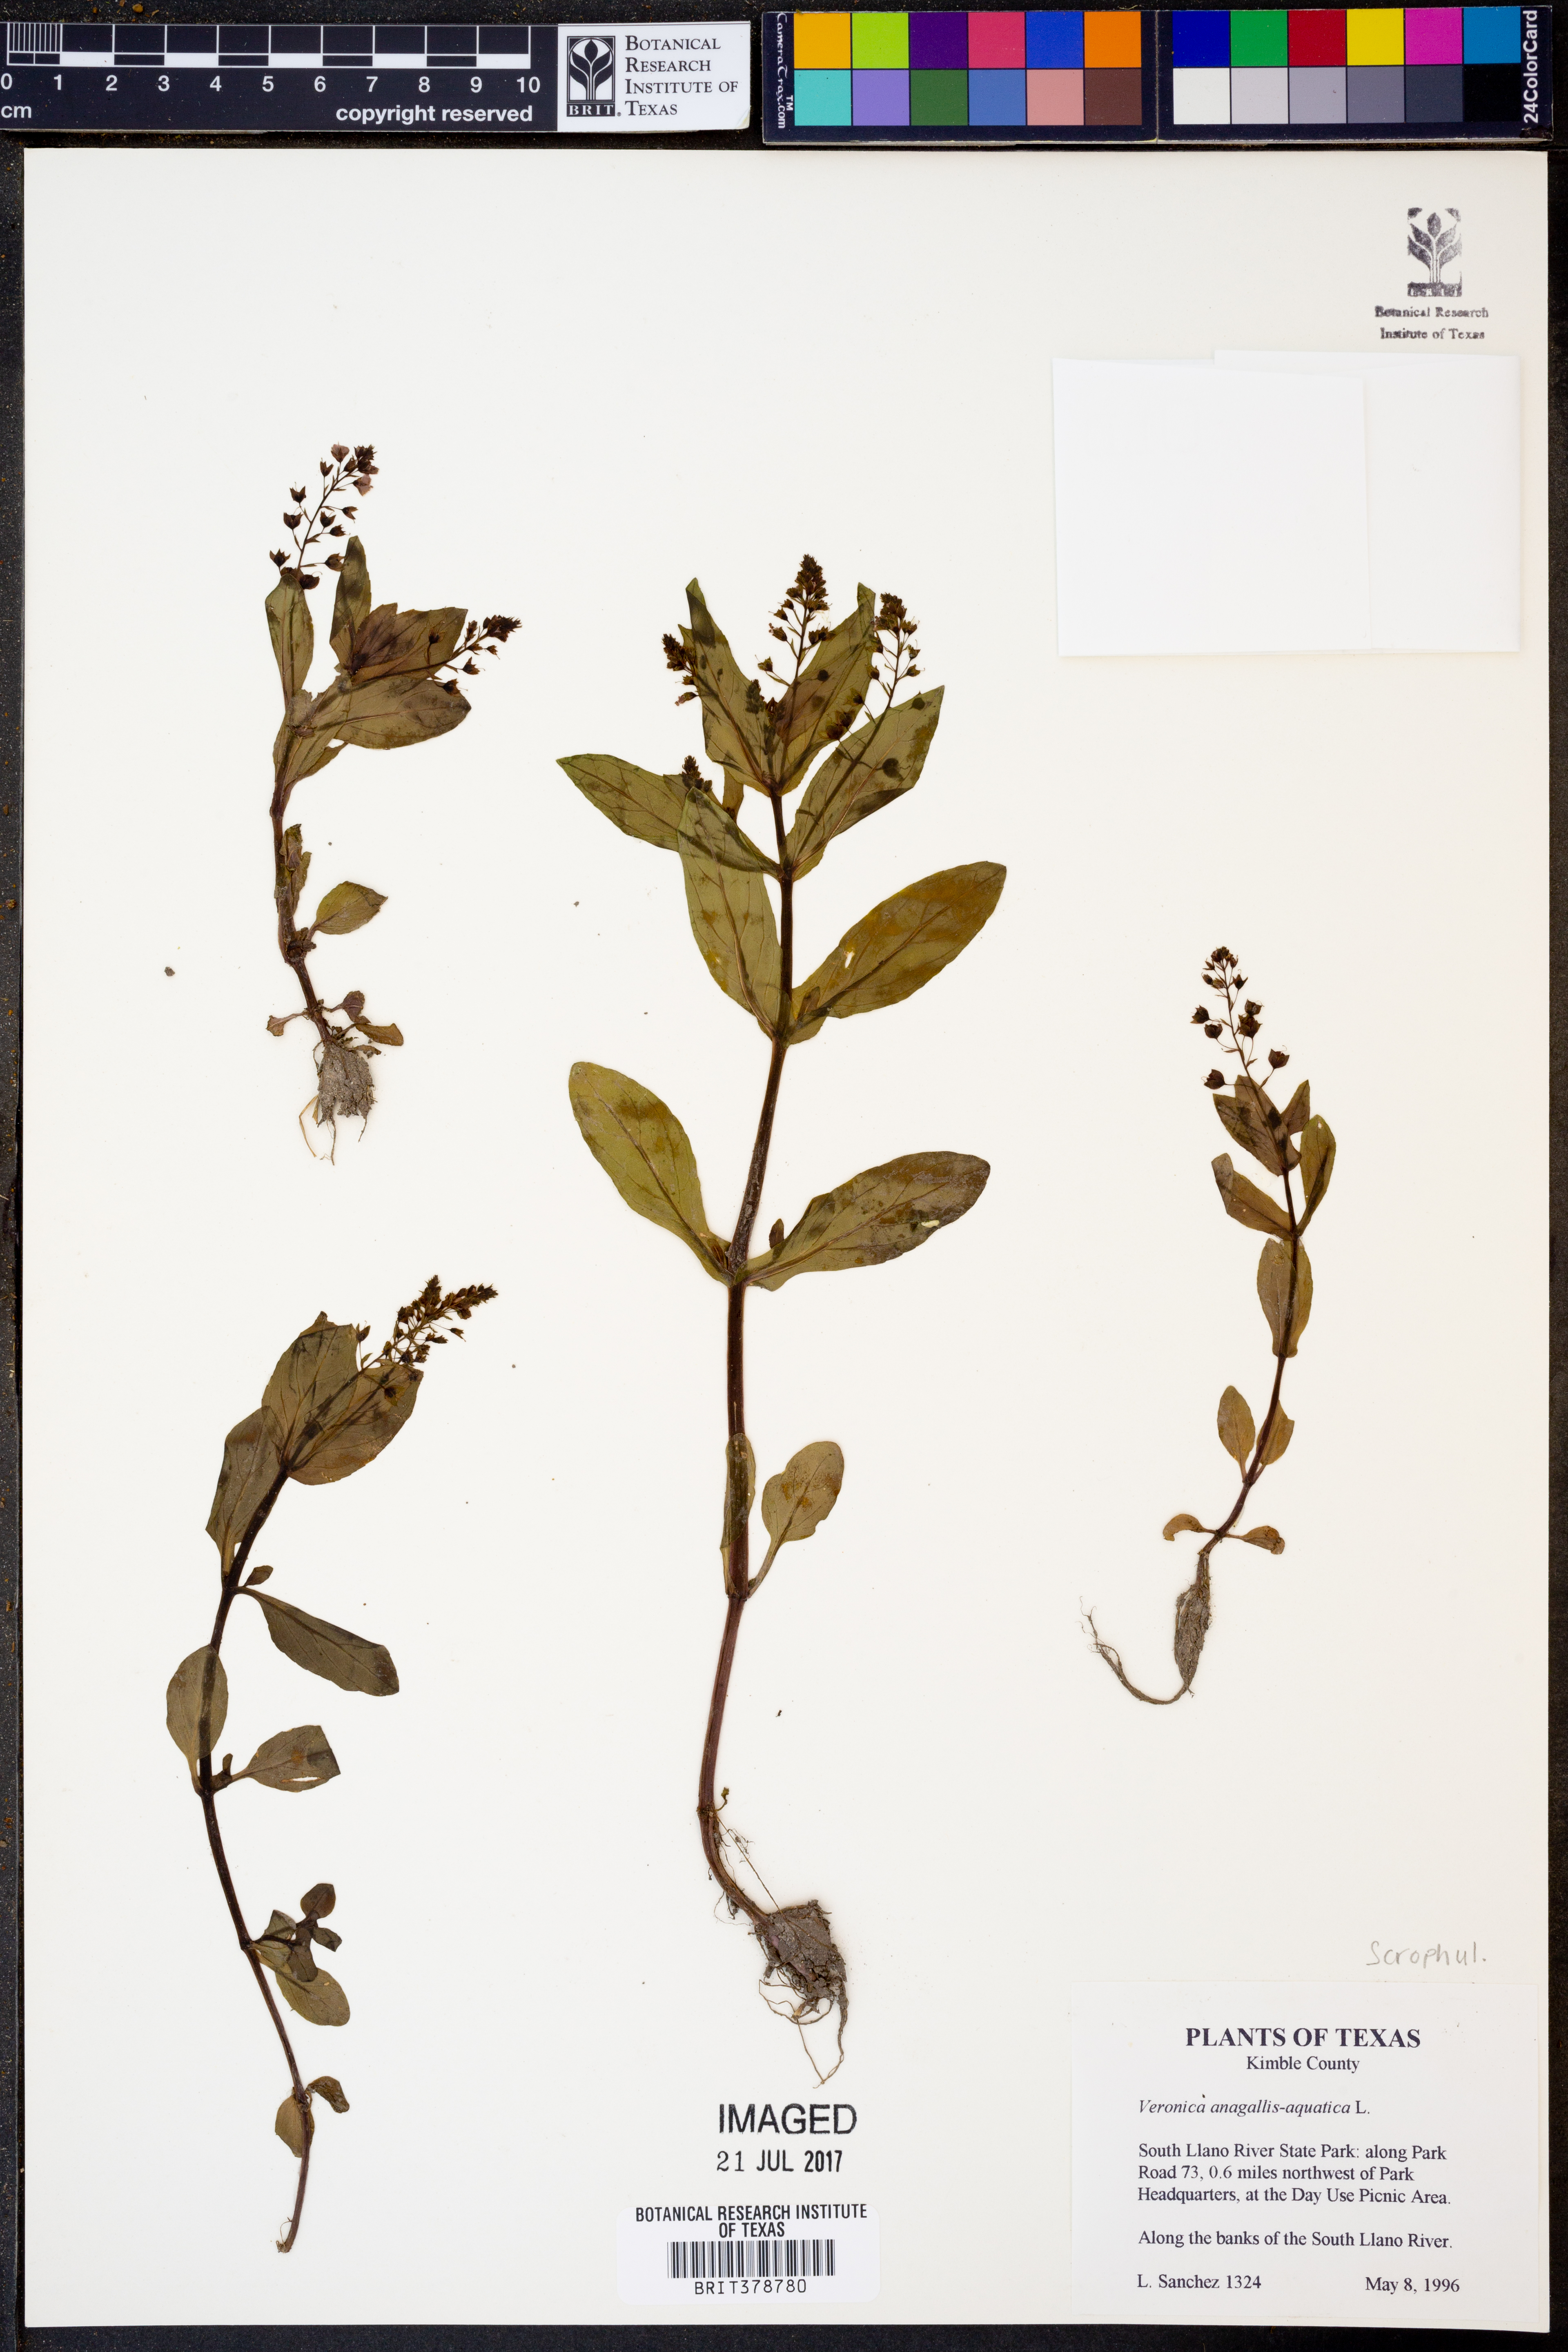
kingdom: Plantae
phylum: Tracheophyta
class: Magnoliopsida
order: Lamiales
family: Plantaginaceae
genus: Veronica
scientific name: Veronica anagallis-aquatica
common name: Water speedwell
